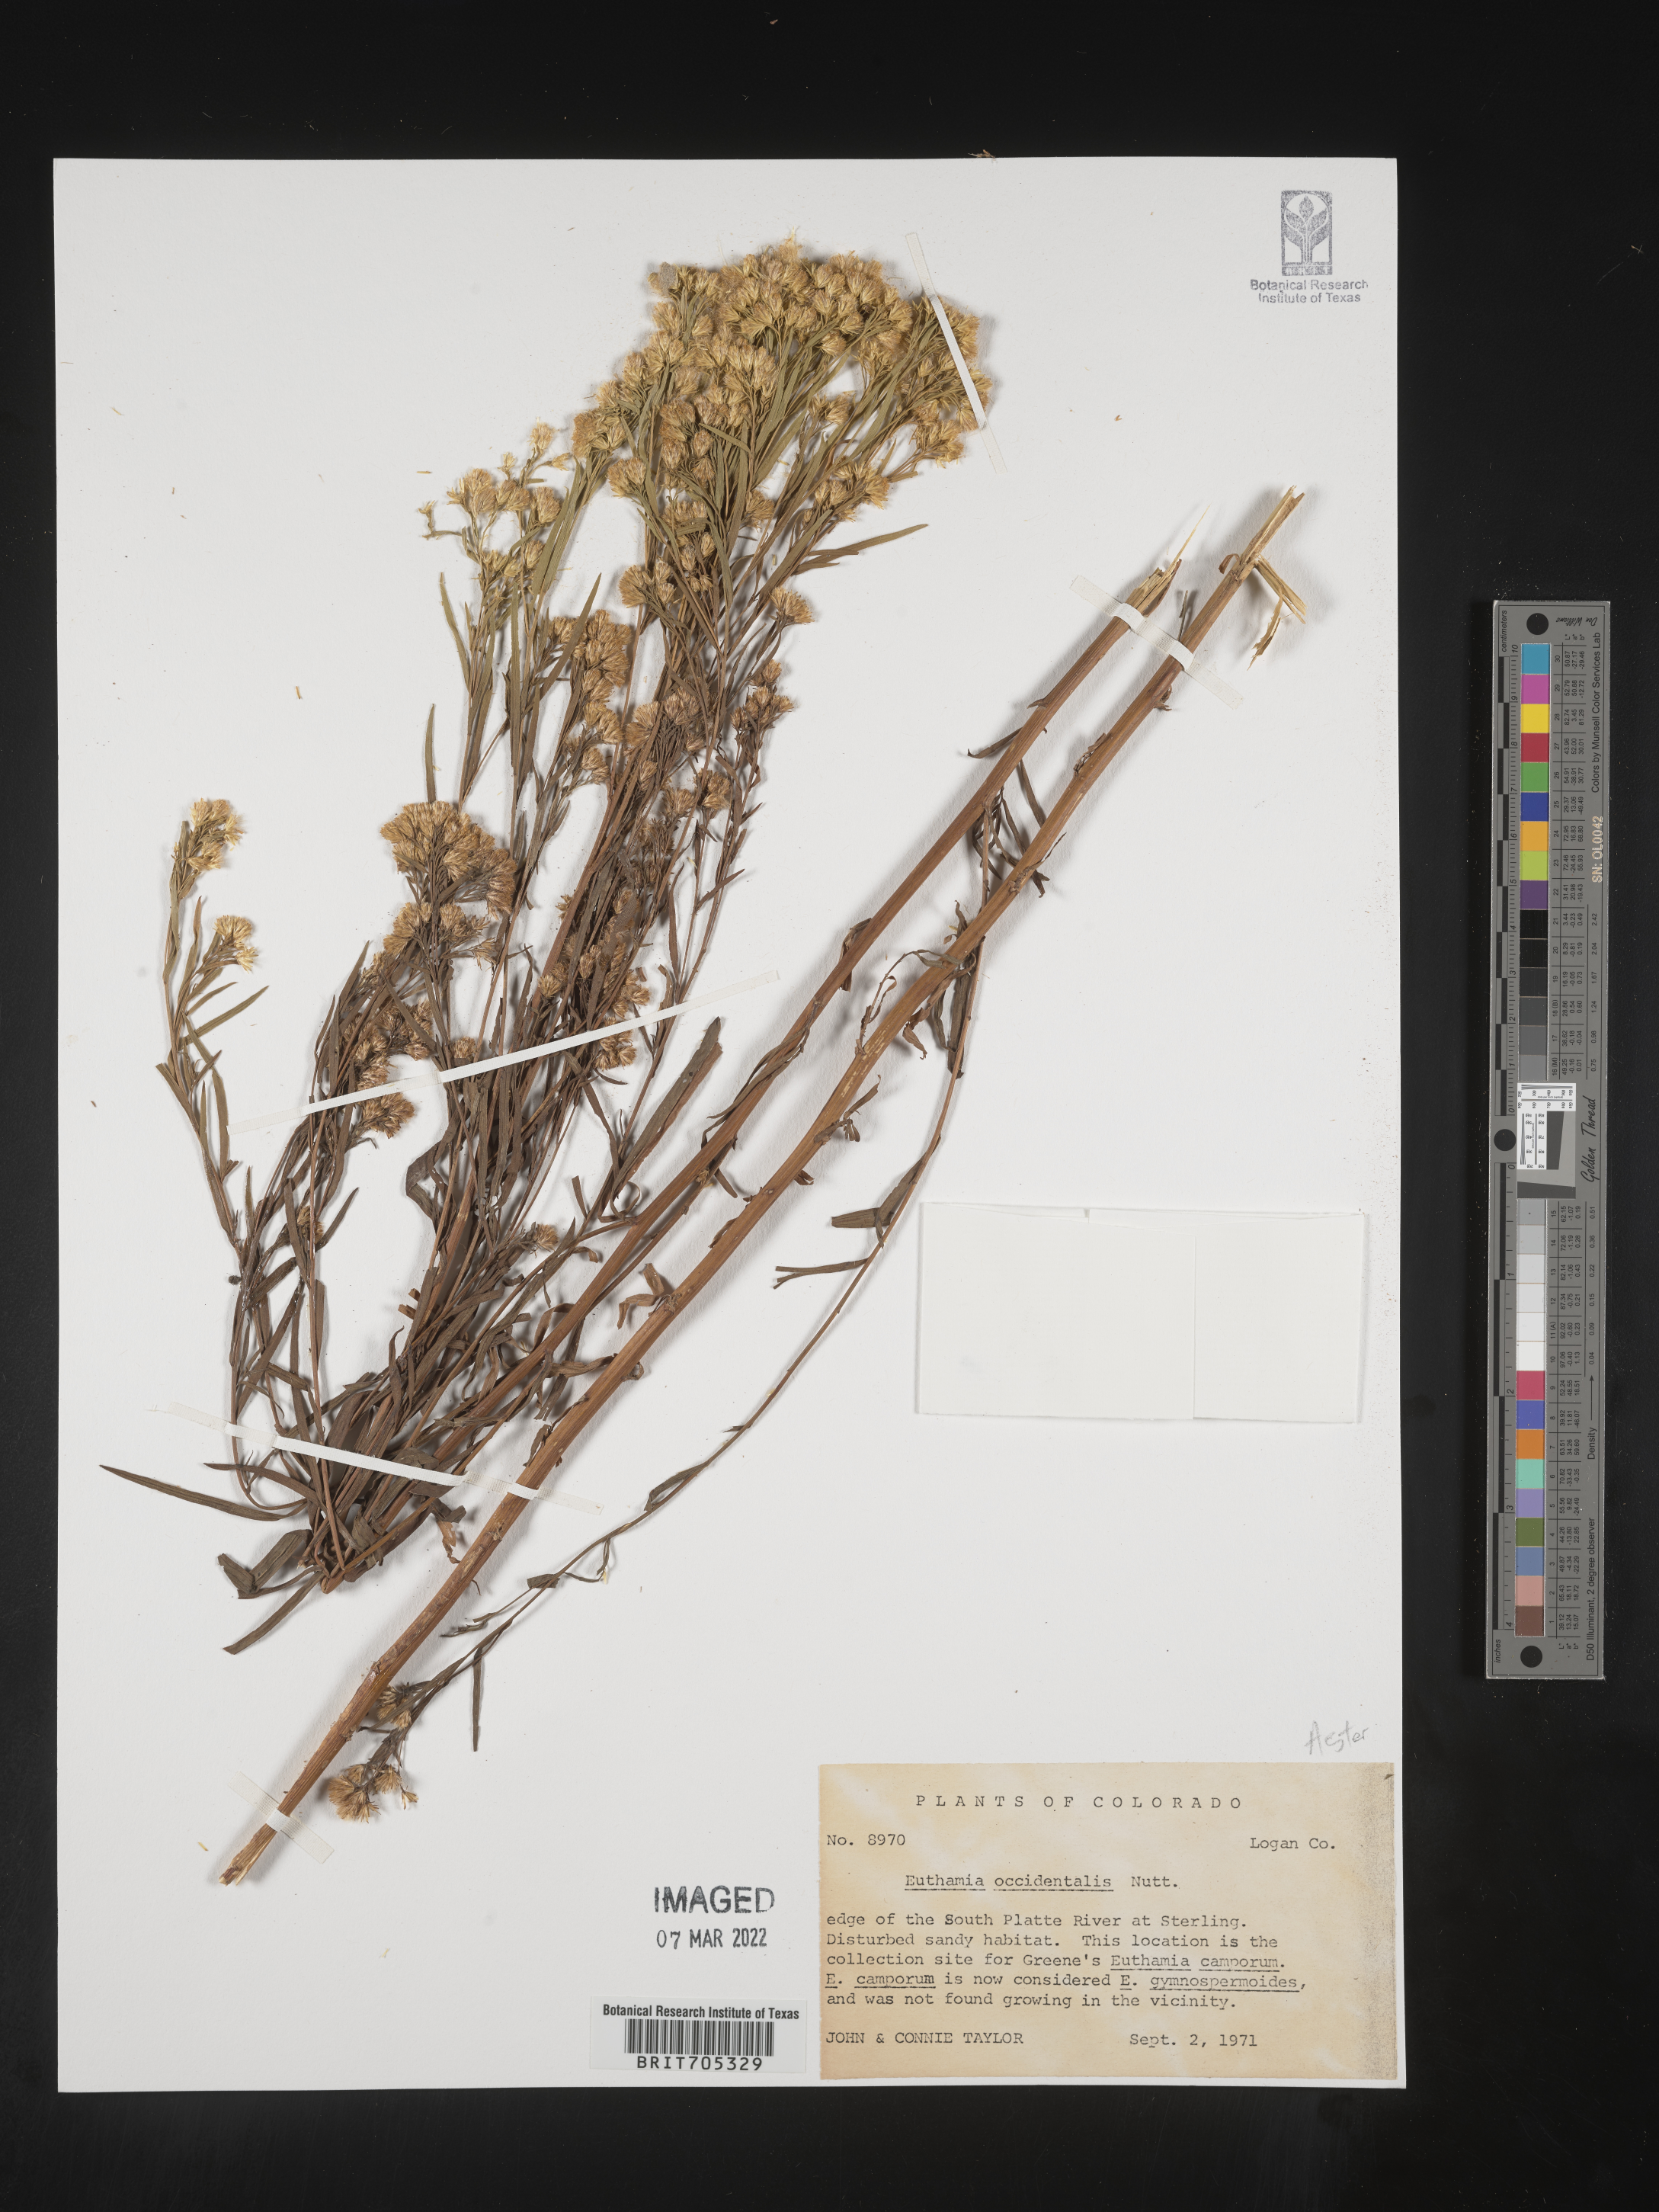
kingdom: Plantae
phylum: Tracheophyta
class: Magnoliopsida
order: Asterales
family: Asteraceae
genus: Euthamia
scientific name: Euthamia occidentalis
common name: Western goldentop
